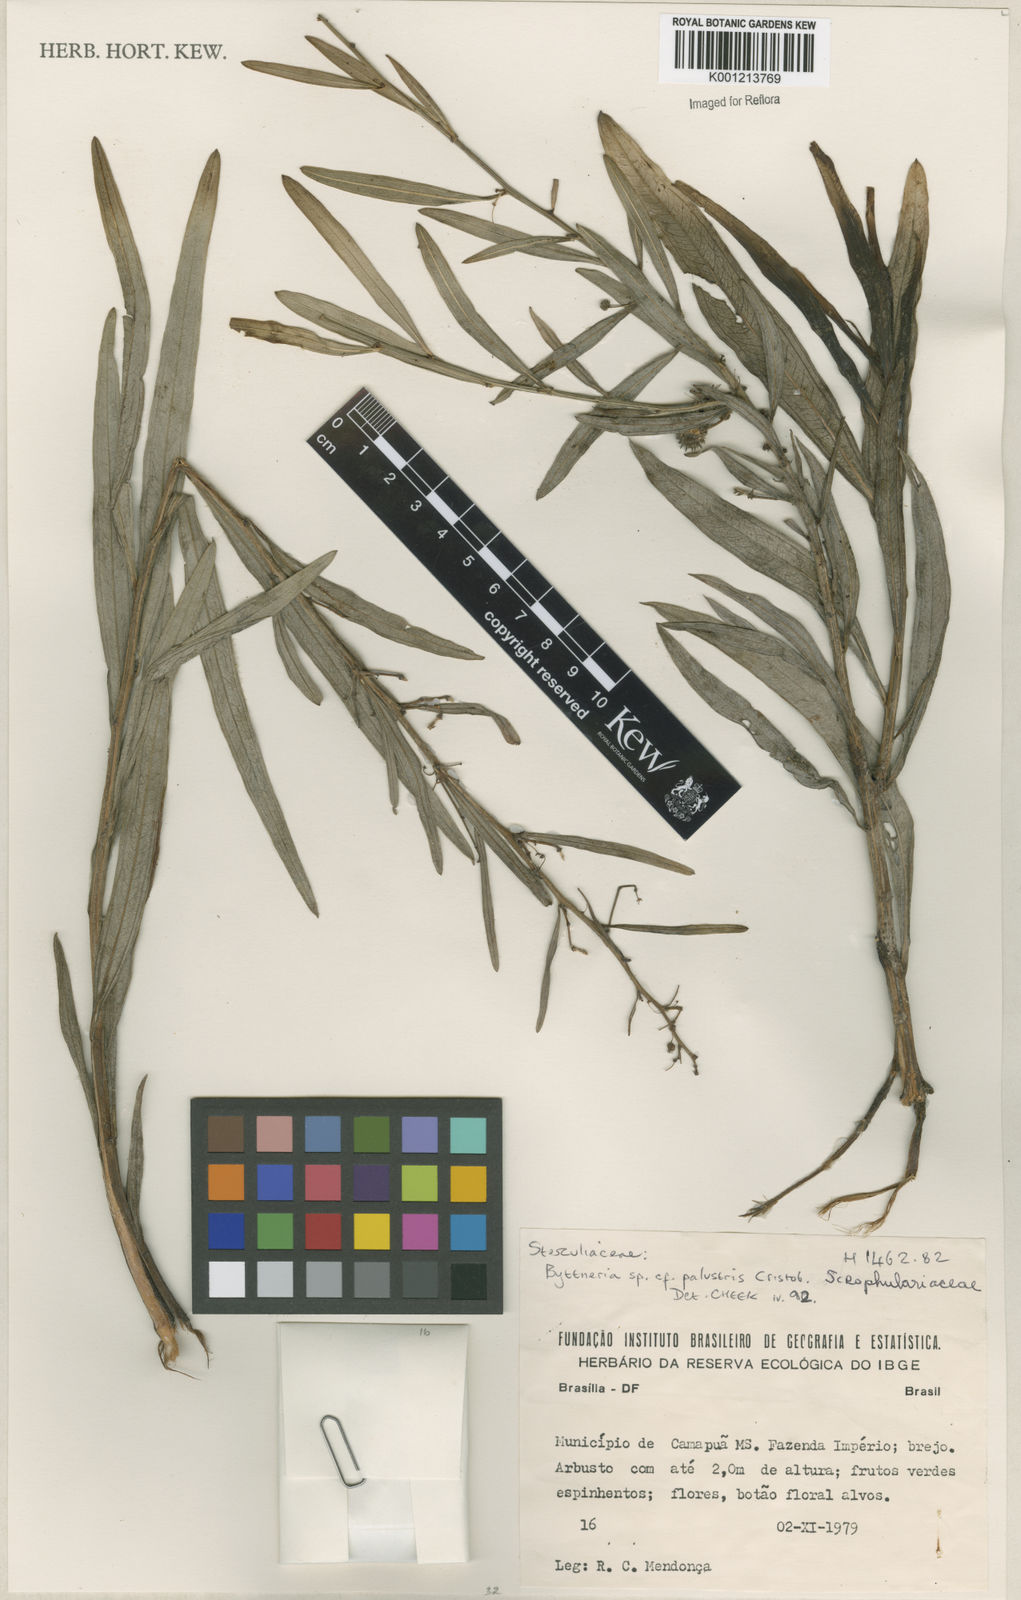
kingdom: Plantae
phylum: Tracheophyta
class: Magnoliopsida
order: Malvales
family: Malvaceae
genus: Byttneria
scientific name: Byttneria
